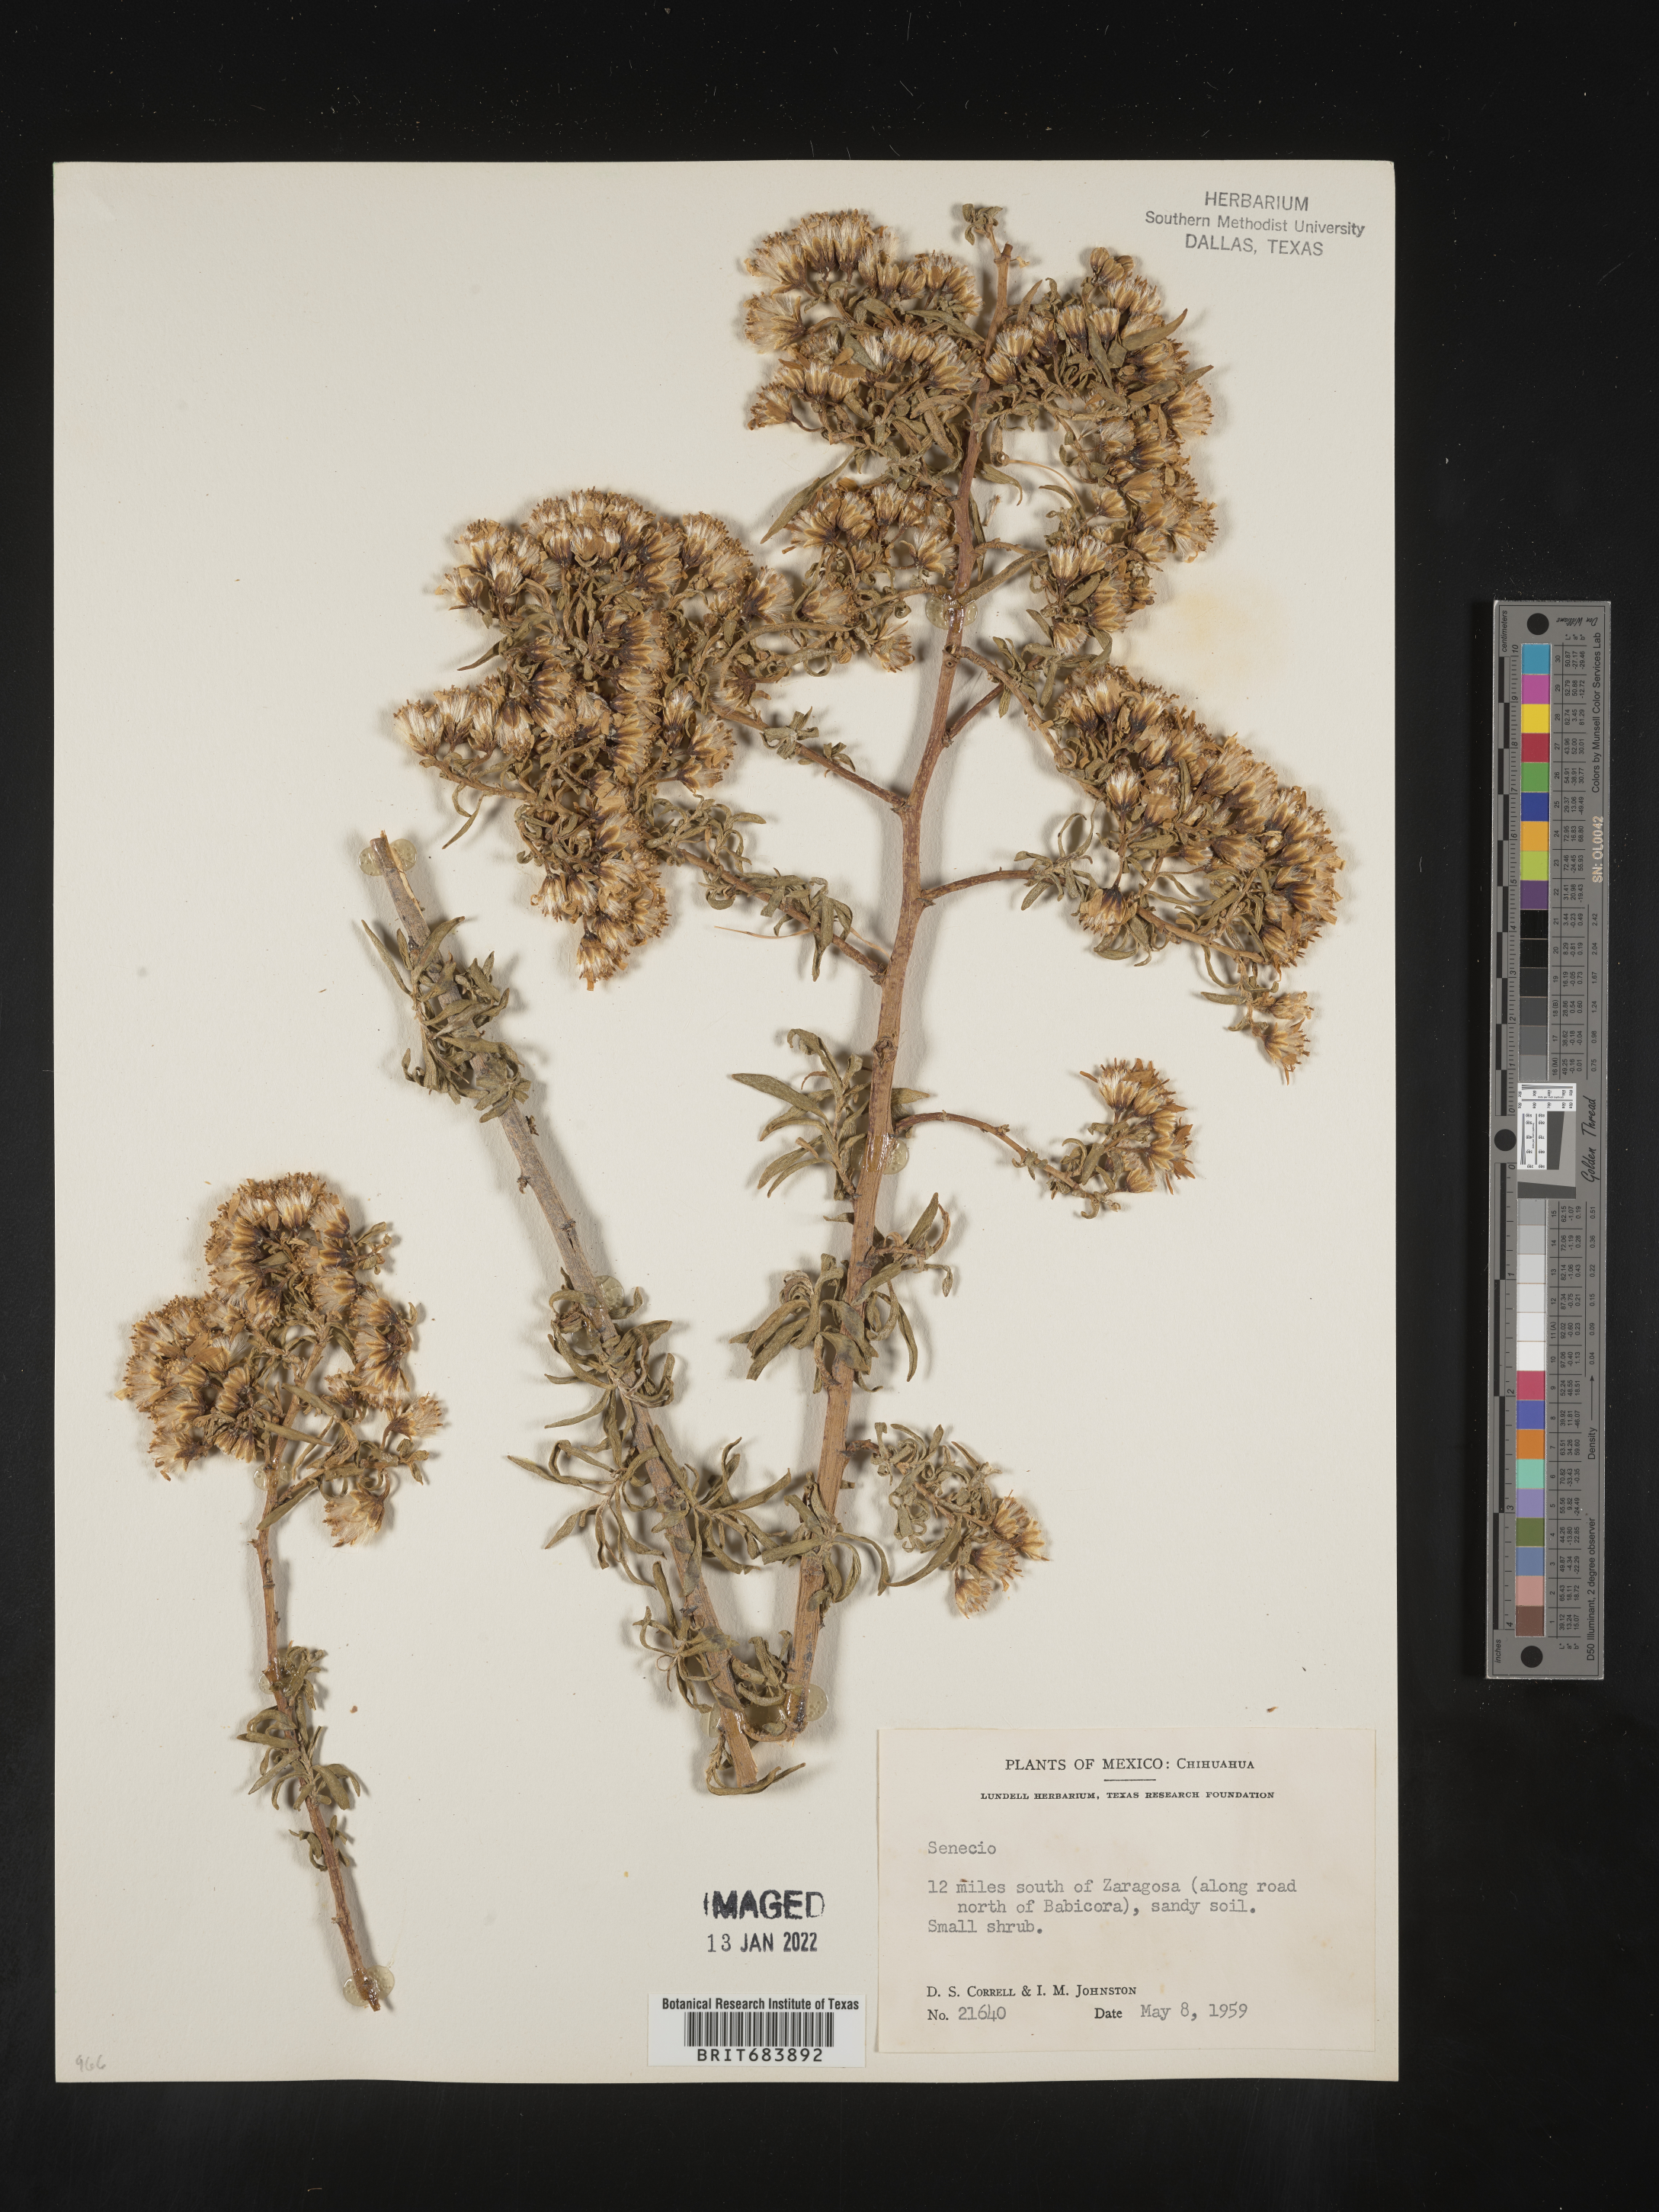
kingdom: Plantae
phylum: Tracheophyta
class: Magnoliopsida
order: Asterales
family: Asteraceae
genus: Barkleyanthus
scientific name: Barkleyanthus
